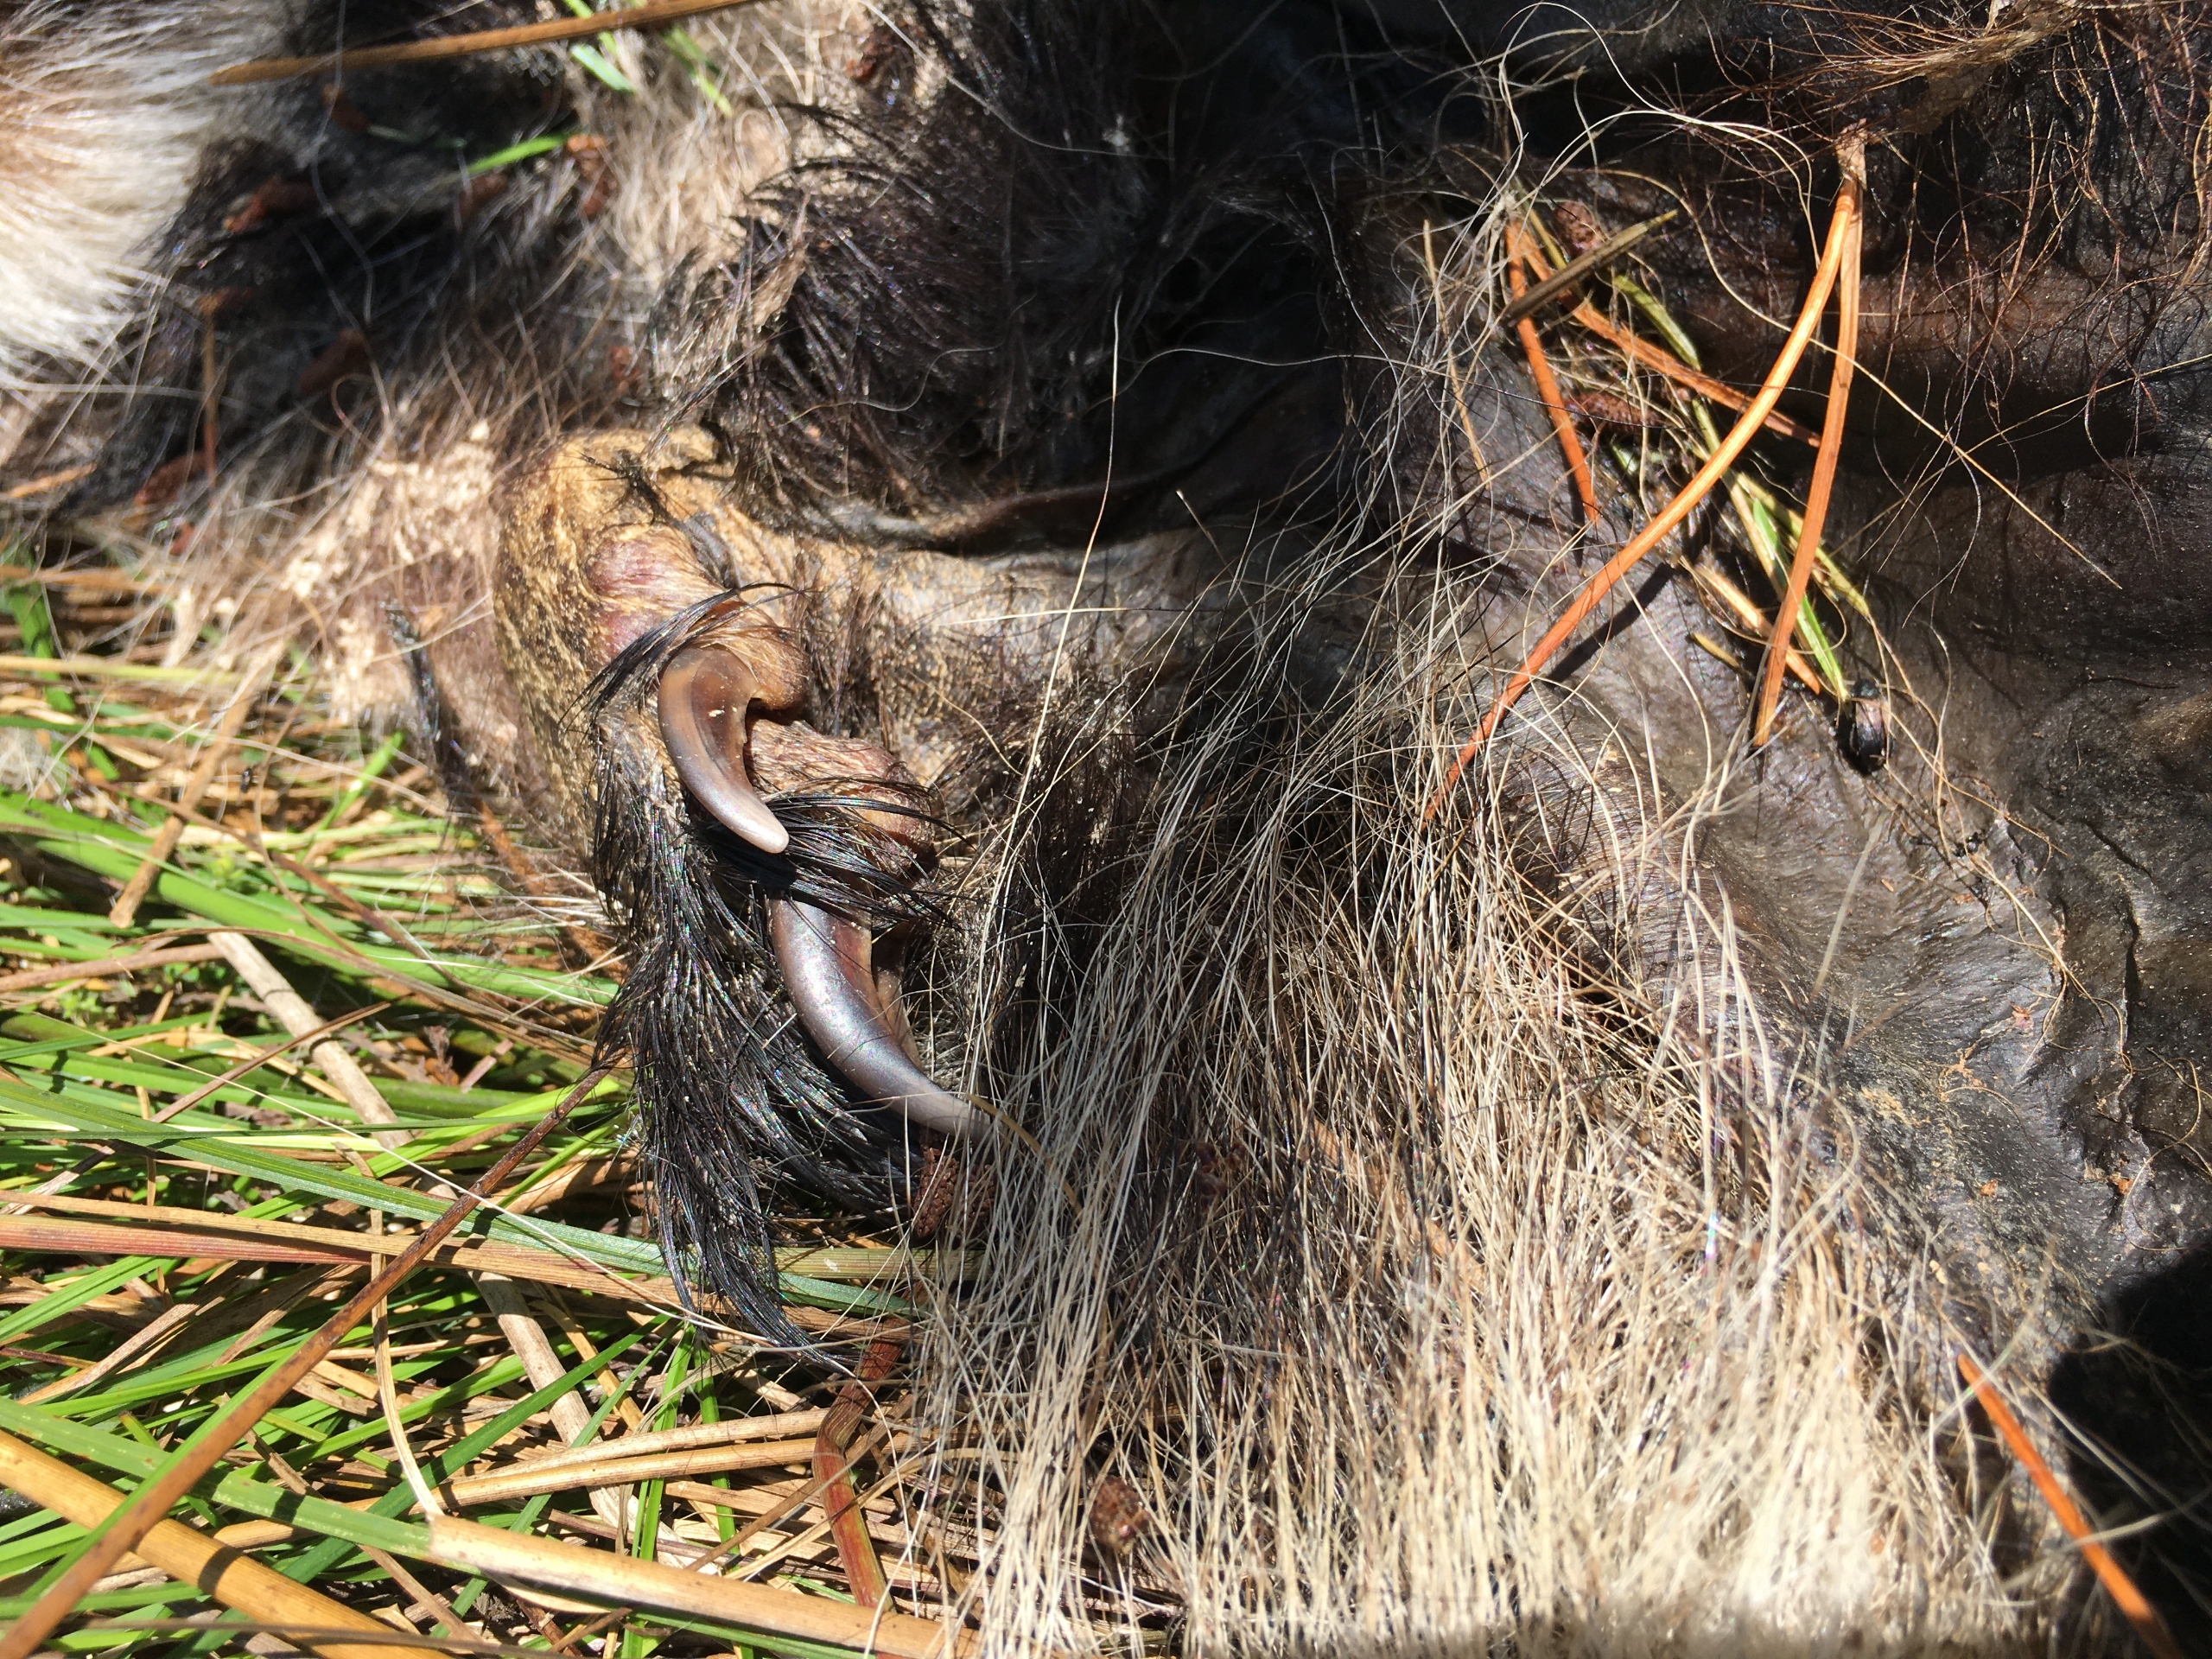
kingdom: Animalia
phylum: Chordata
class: Mammalia
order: Carnivora
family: Mustelidae
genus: Meles
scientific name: Meles meles
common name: Grævling
